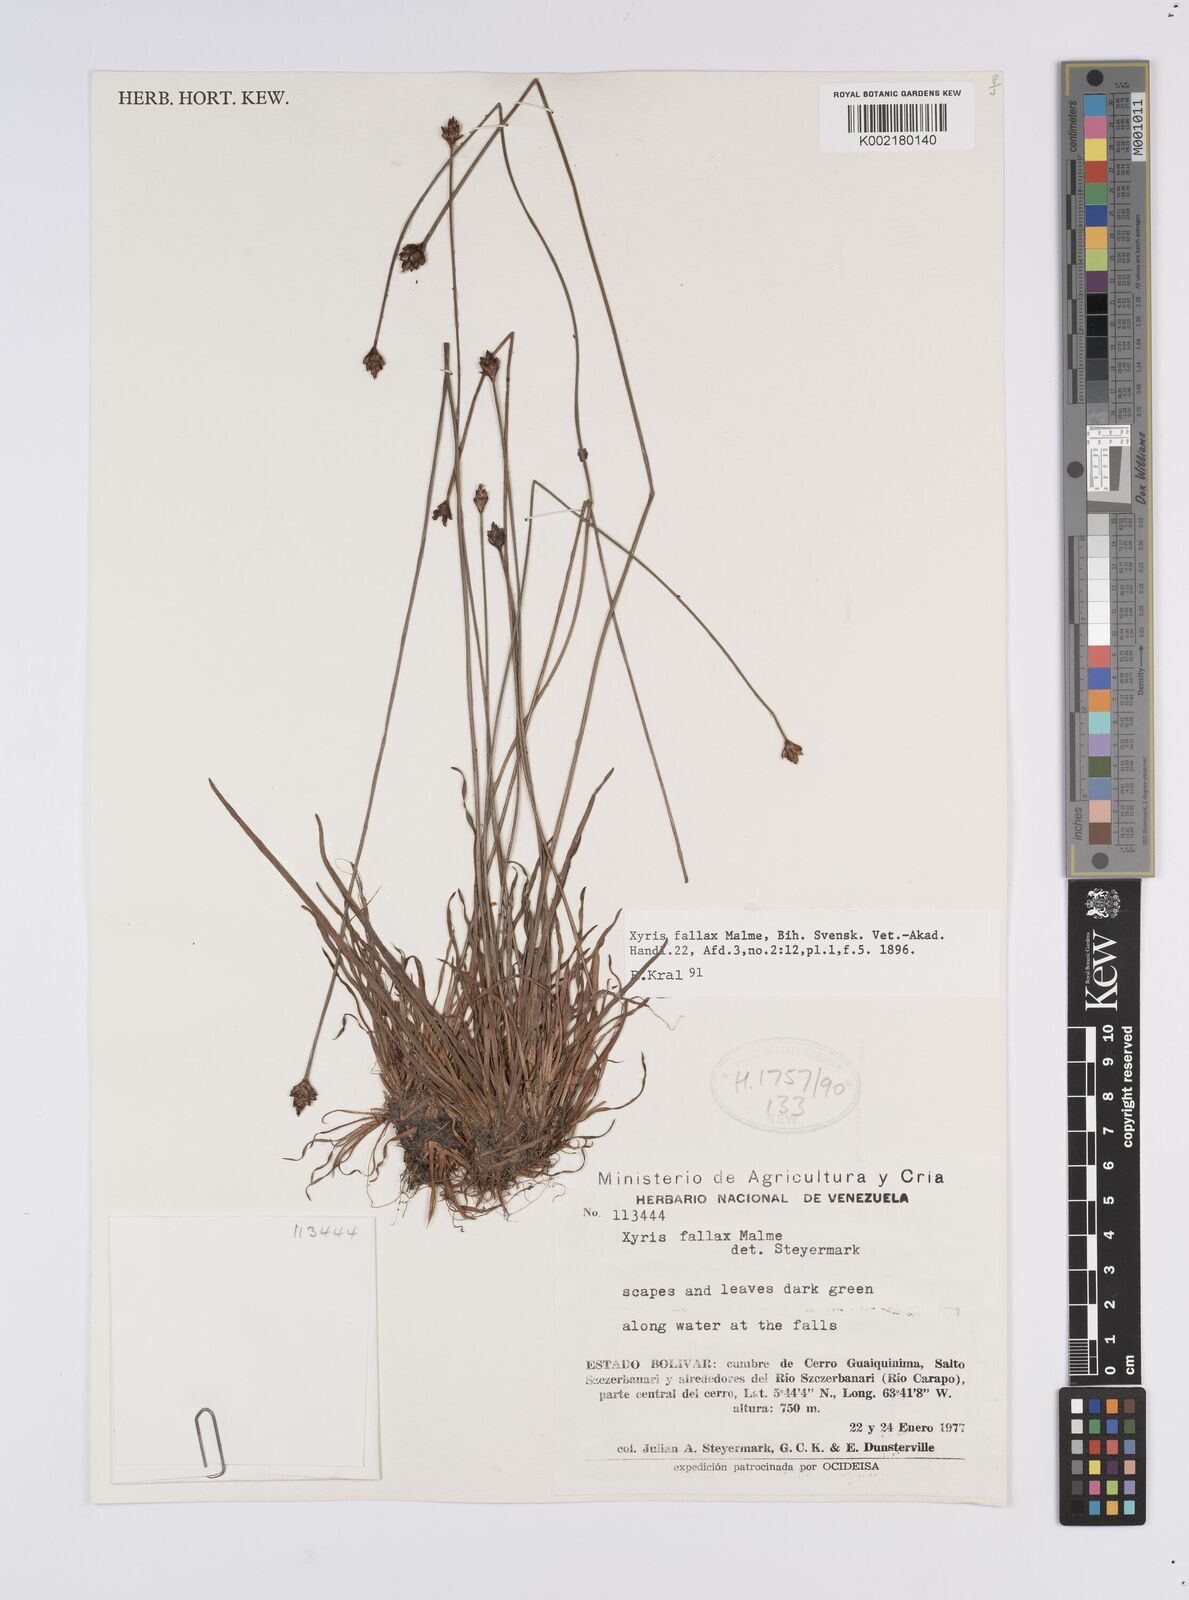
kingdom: Plantae
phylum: Tracheophyta
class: Liliopsida
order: Poales
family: Xyridaceae
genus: Xyris
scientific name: Xyris fallax
